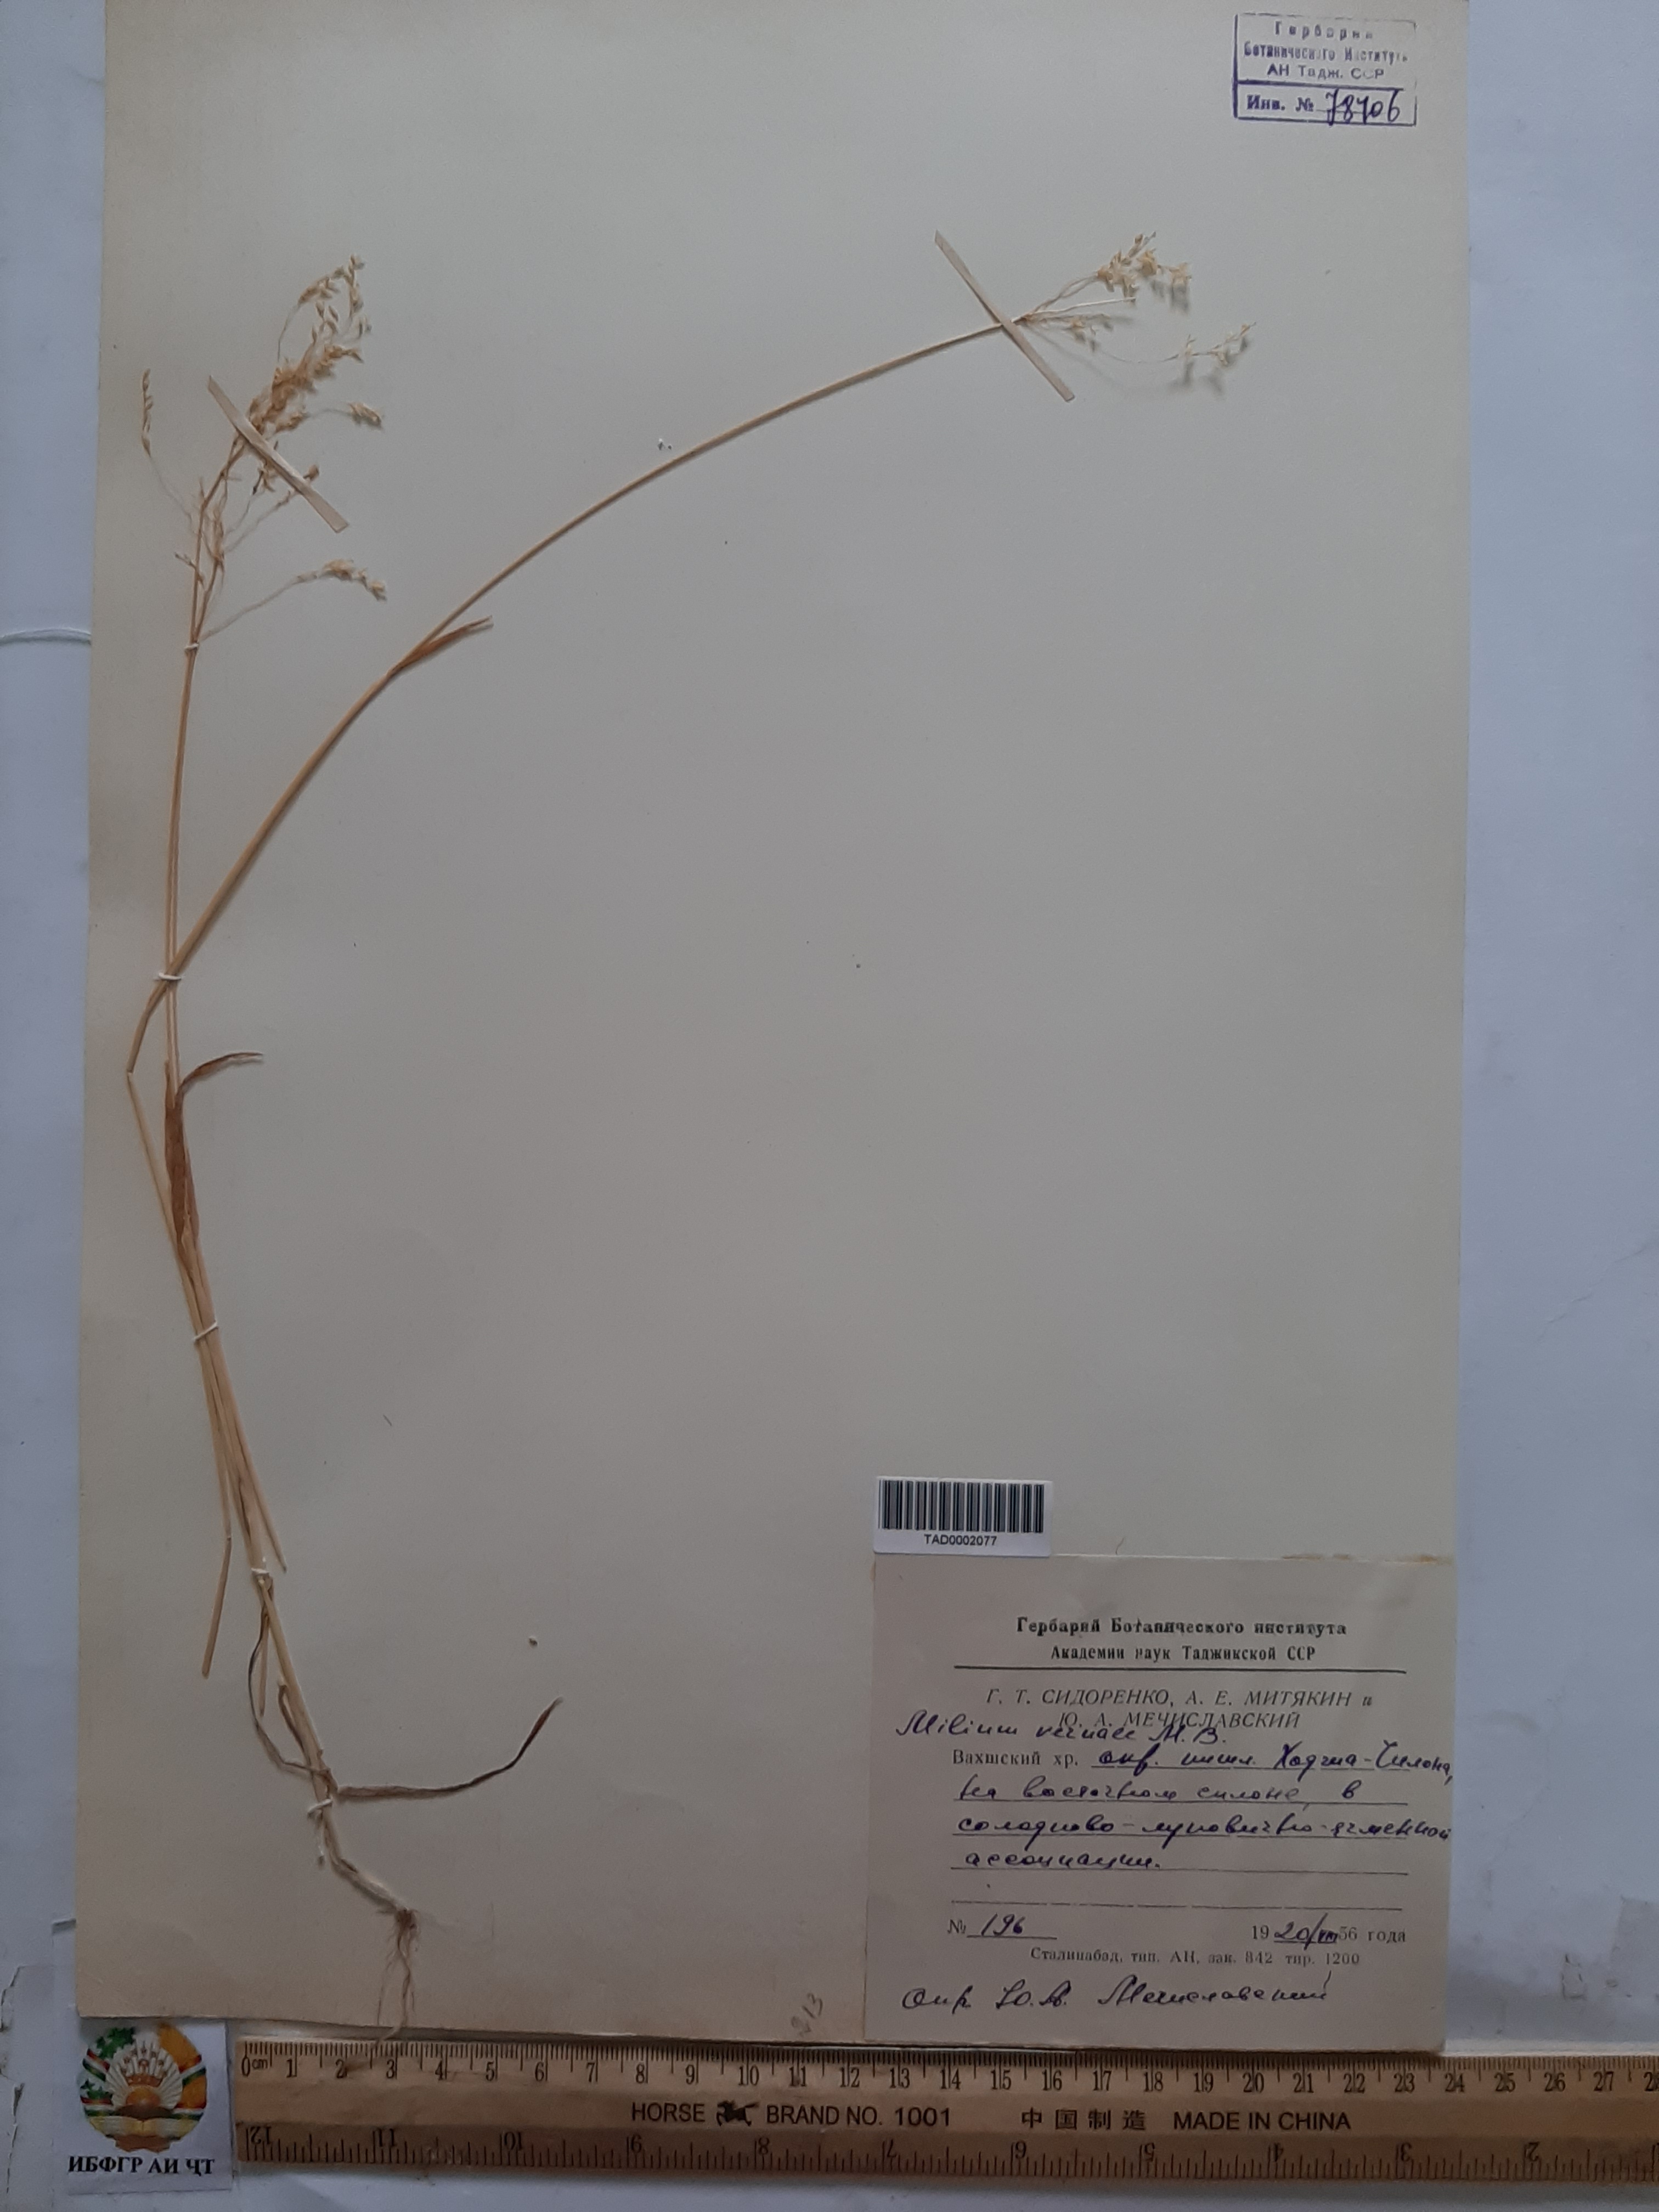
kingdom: Plantae
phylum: Tracheophyta
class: Liliopsida
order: Poales
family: Poaceae
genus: Milium
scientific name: Milium vernale
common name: Early millet
